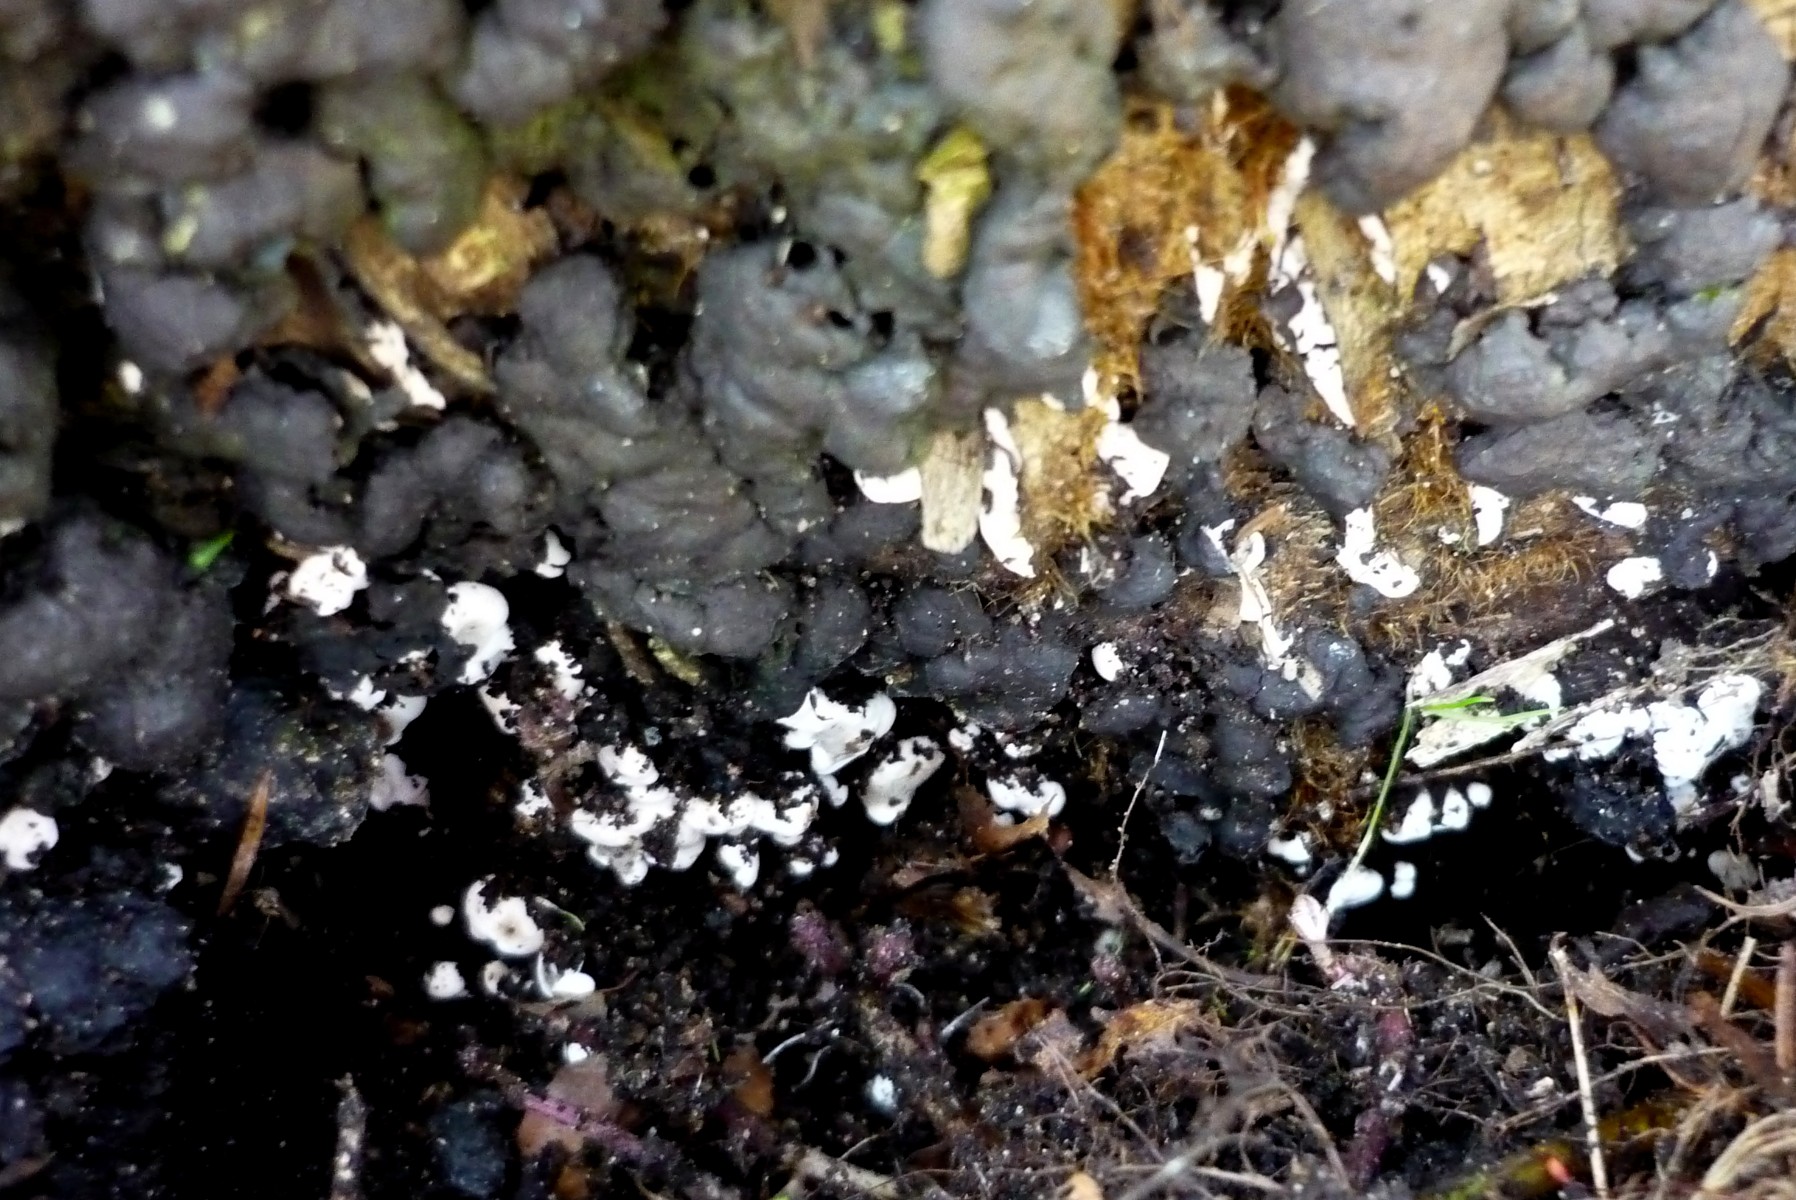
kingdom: Fungi
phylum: Ascomycota
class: Sordariomycetes
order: Xylariales
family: Xylariaceae
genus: Kretzschmaria
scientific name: Kretzschmaria deusta
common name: stor kulsvamp
